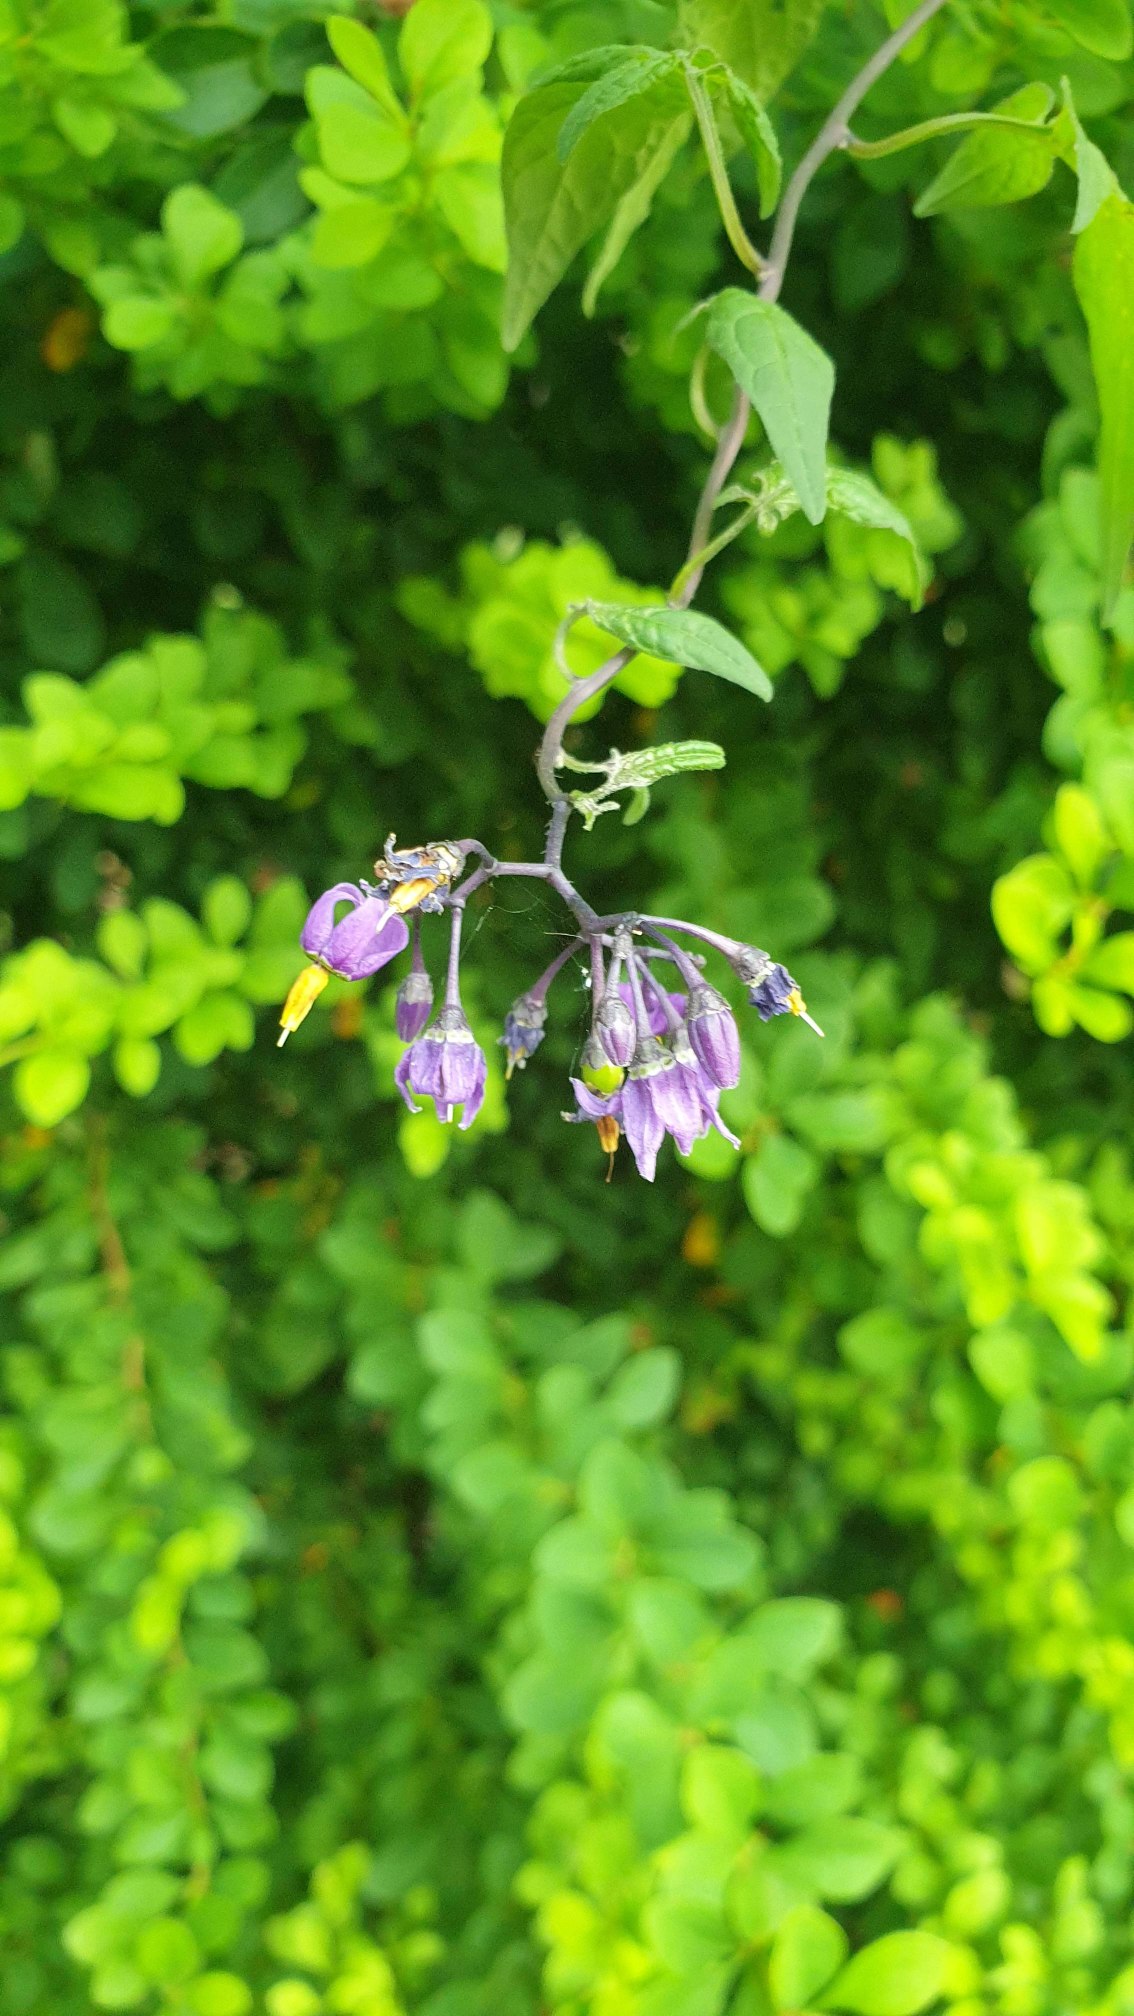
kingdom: Plantae
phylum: Tracheophyta
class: Magnoliopsida
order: Solanales
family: Solanaceae
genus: Solanum
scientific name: Solanum dulcamara
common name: Bittersød natskygge
